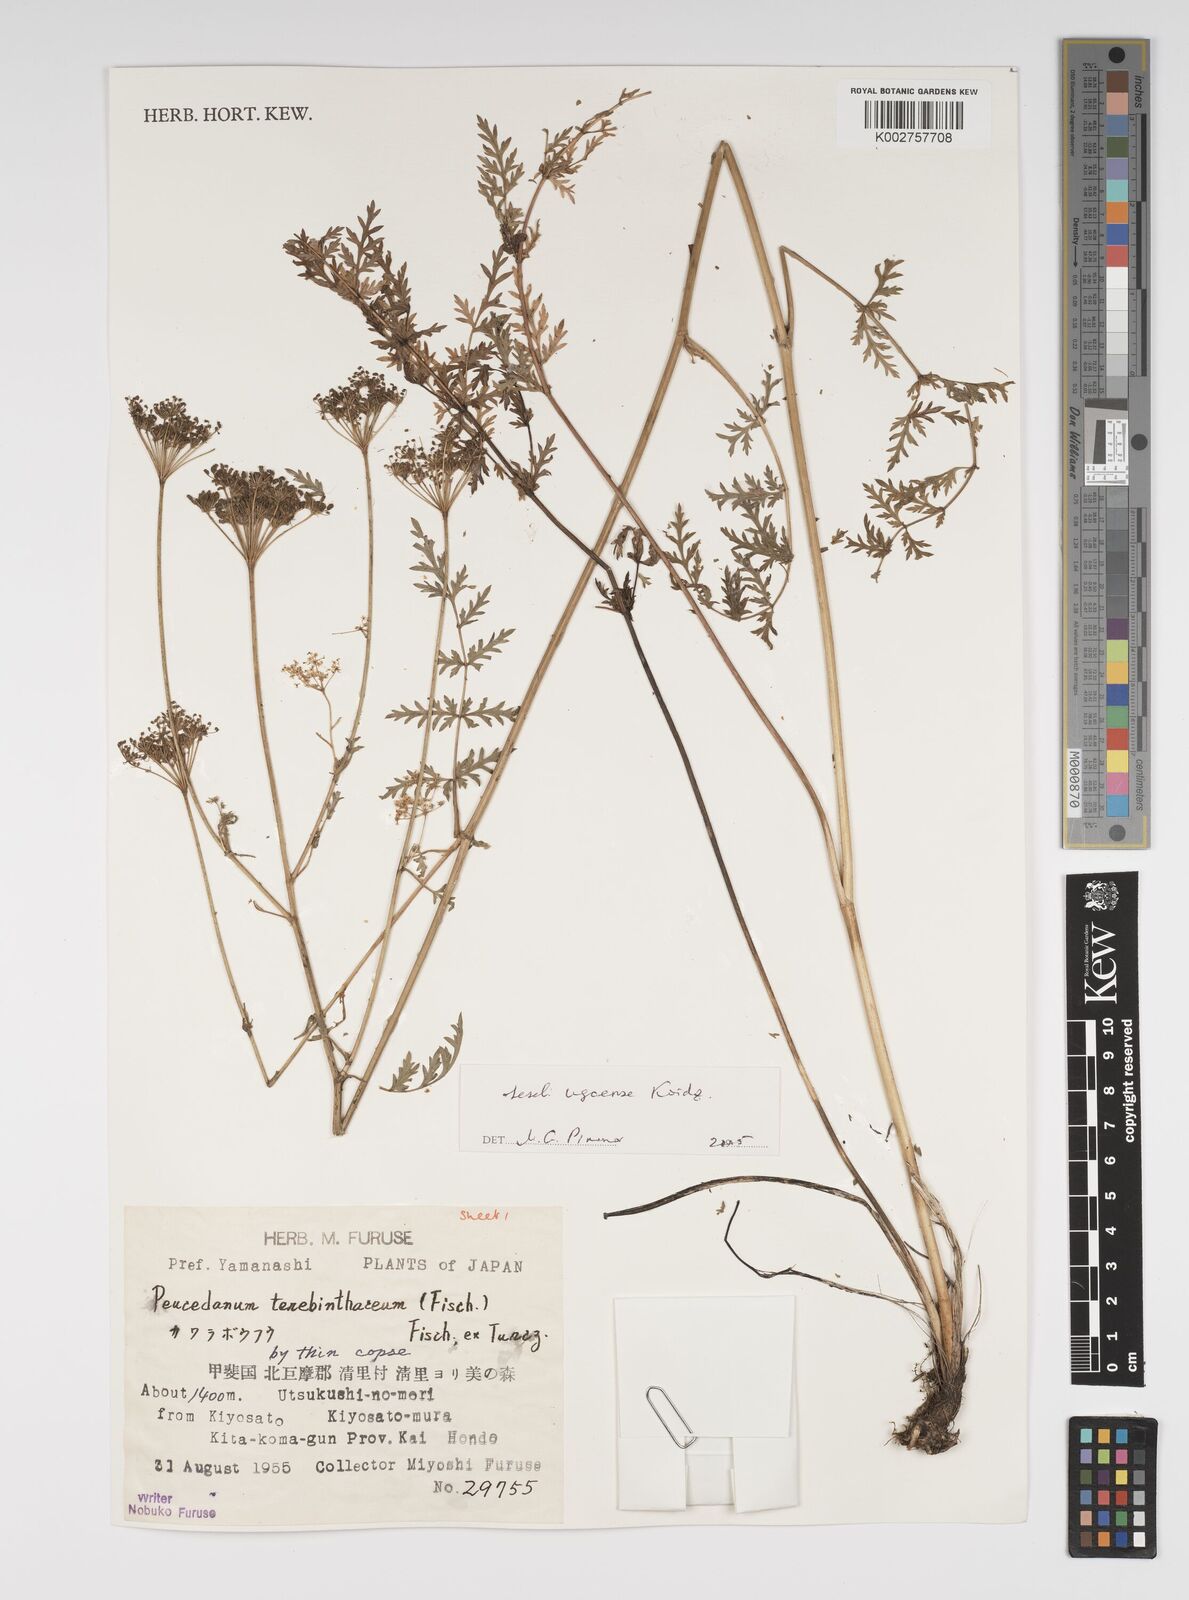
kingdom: Plantae
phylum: Tracheophyta
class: Magnoliopsida
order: Apiales
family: Apiaceae
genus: Seseli
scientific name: Seseli ugoense
